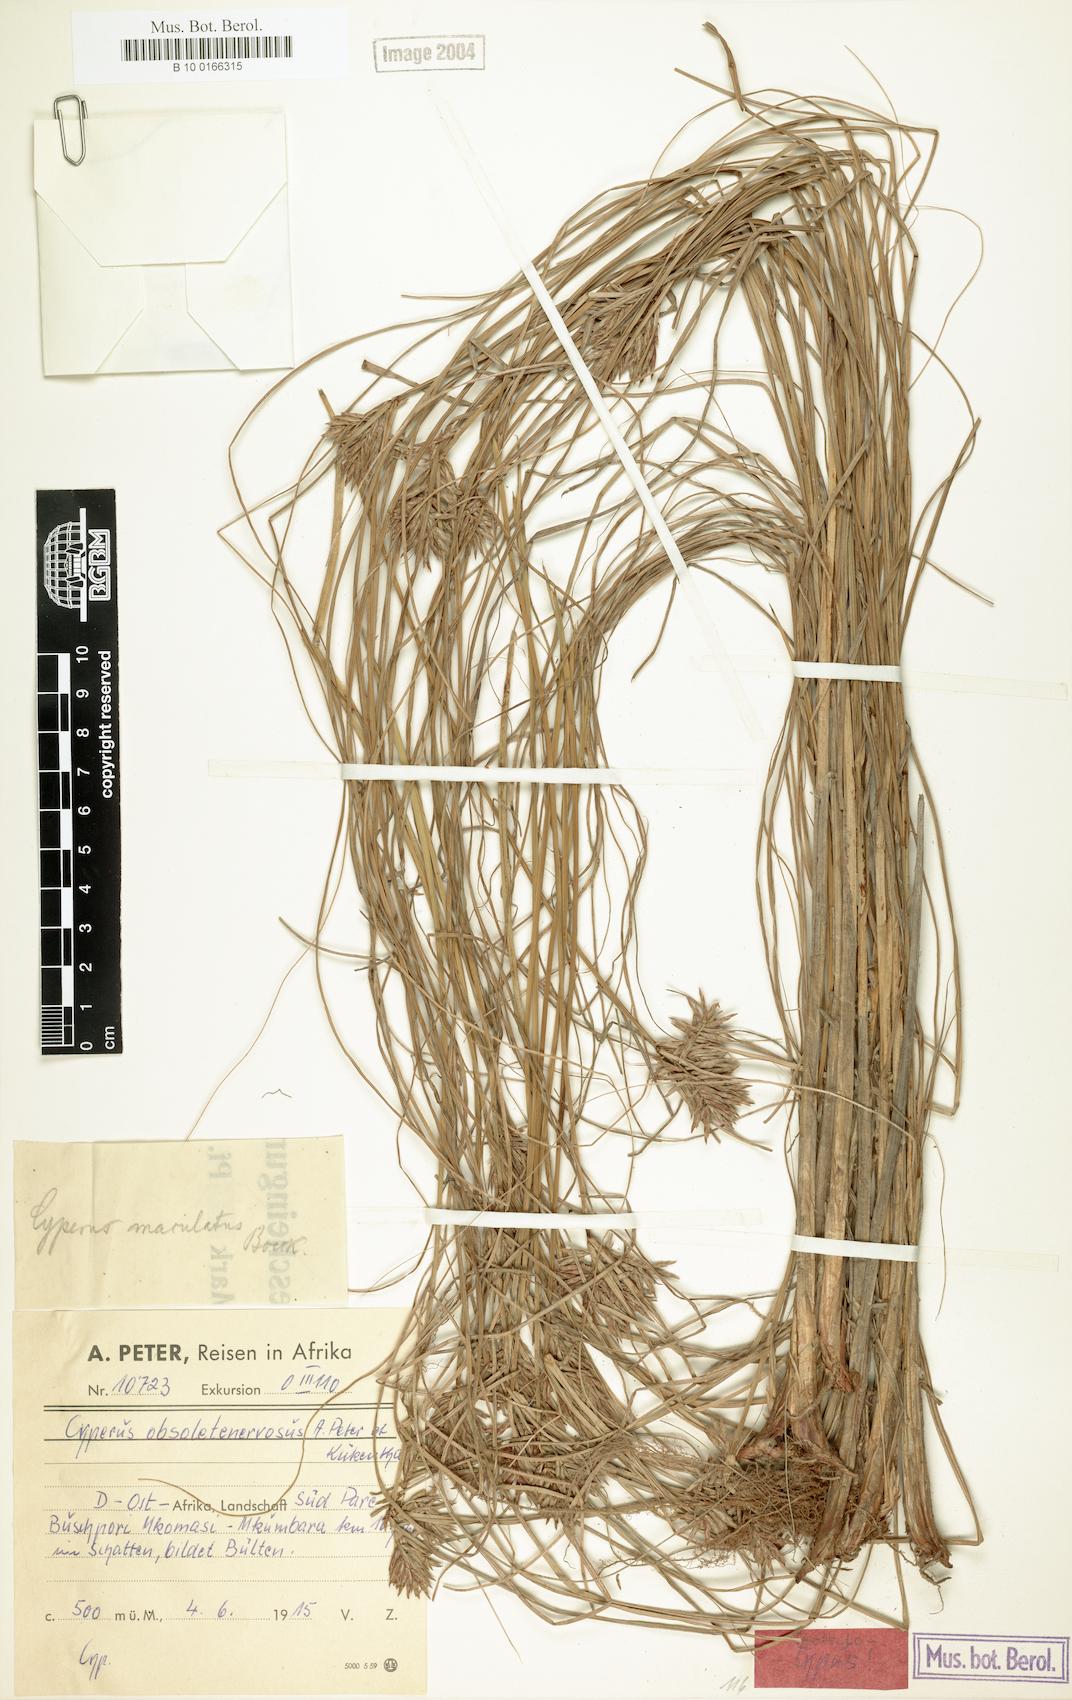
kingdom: Plantae
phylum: Tracheophyta
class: Liliopsida
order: Poales
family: Cyperaceae
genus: Cyperus
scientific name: Cyperus vestitus
